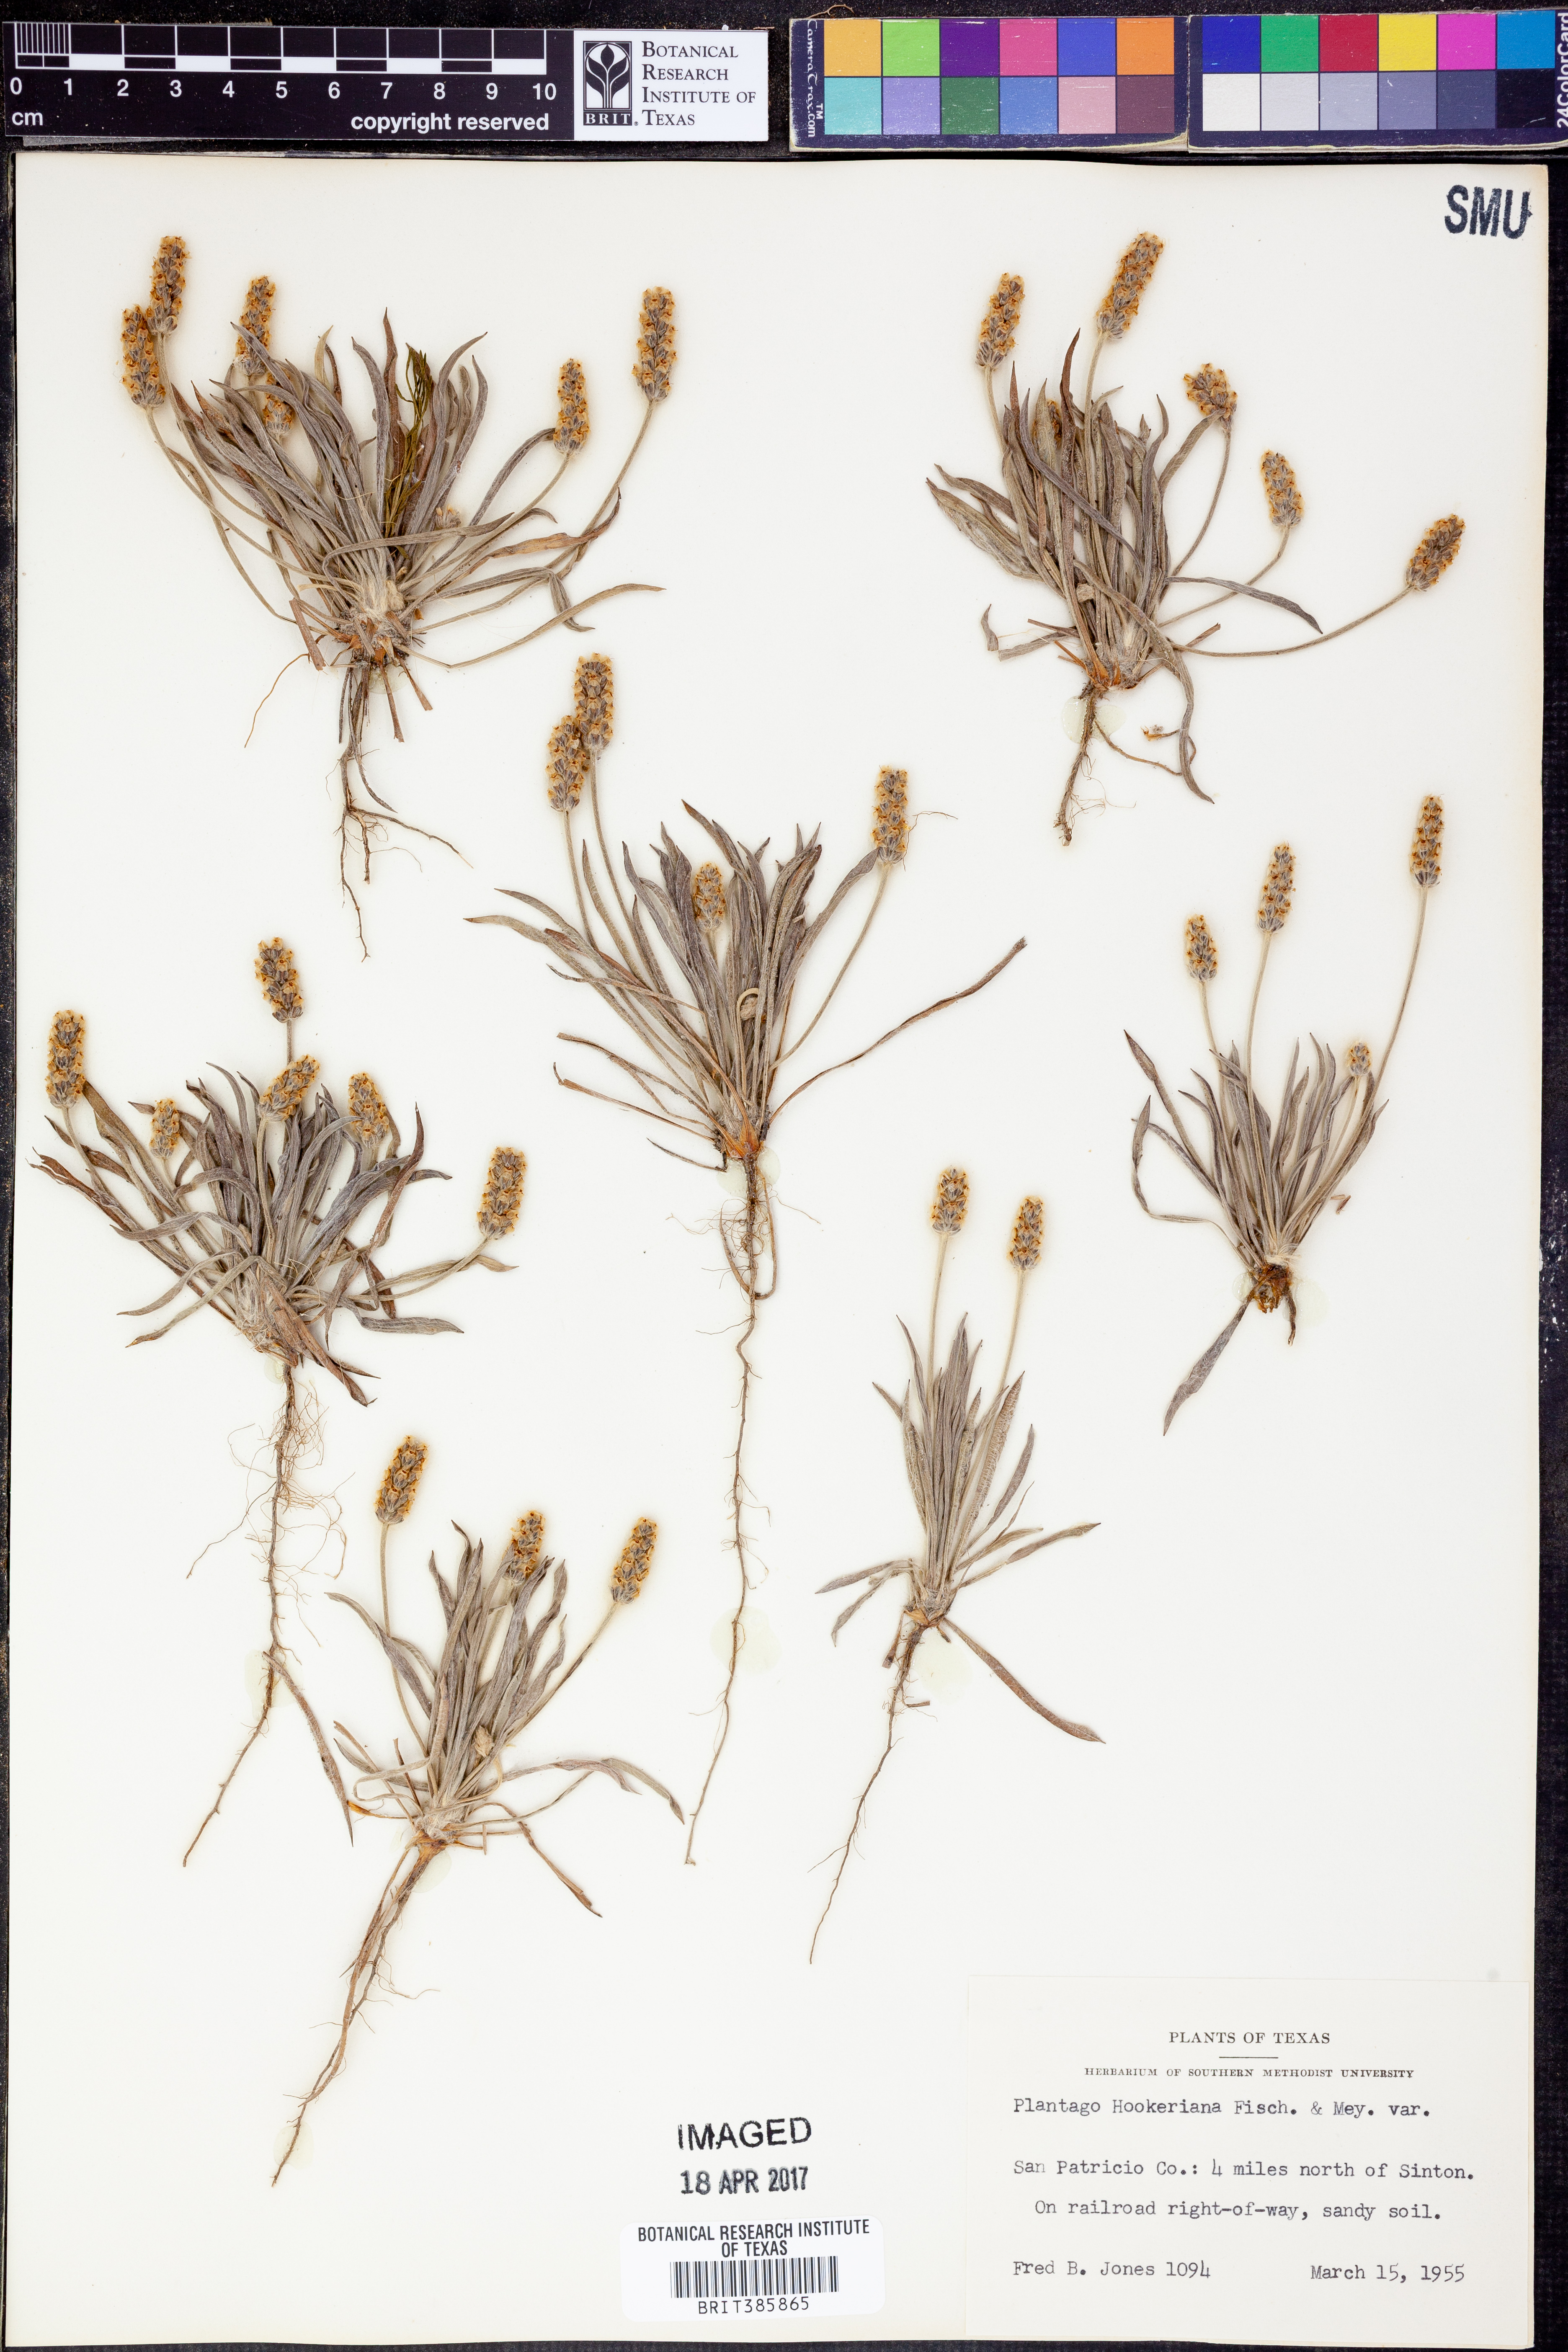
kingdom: Plantae
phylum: Tracheophyta
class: Magnoliopsida
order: Lamiales
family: Plantaginaceae
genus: Plantago
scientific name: Plantago hookeriana
